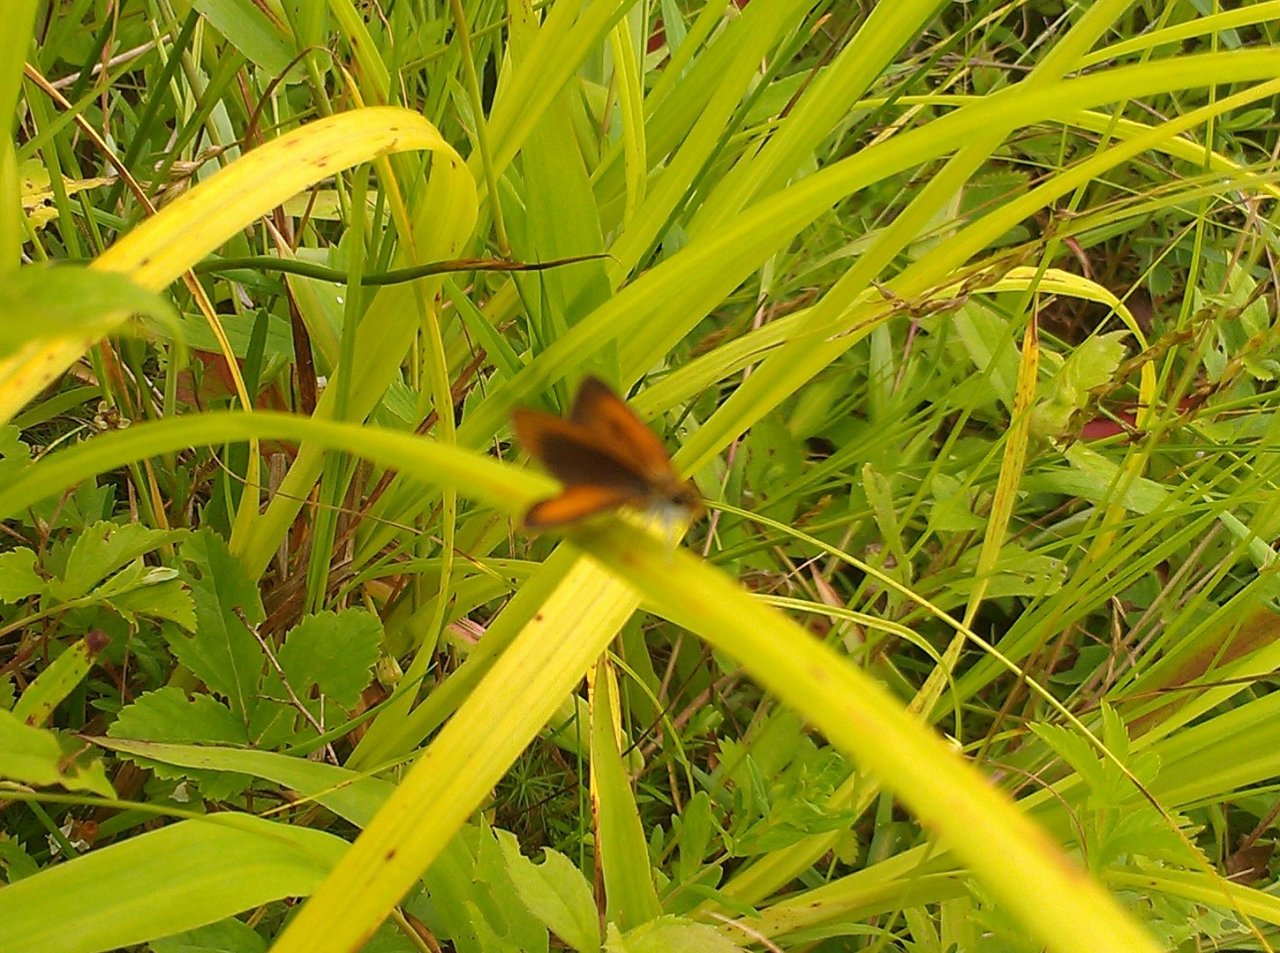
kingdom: Animalia
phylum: Arthropoda
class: Insecta
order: Lepidoptera
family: Hesperiidae
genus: Ancyloxypha
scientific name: Ancyloxypha numitor
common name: Least Skipper
